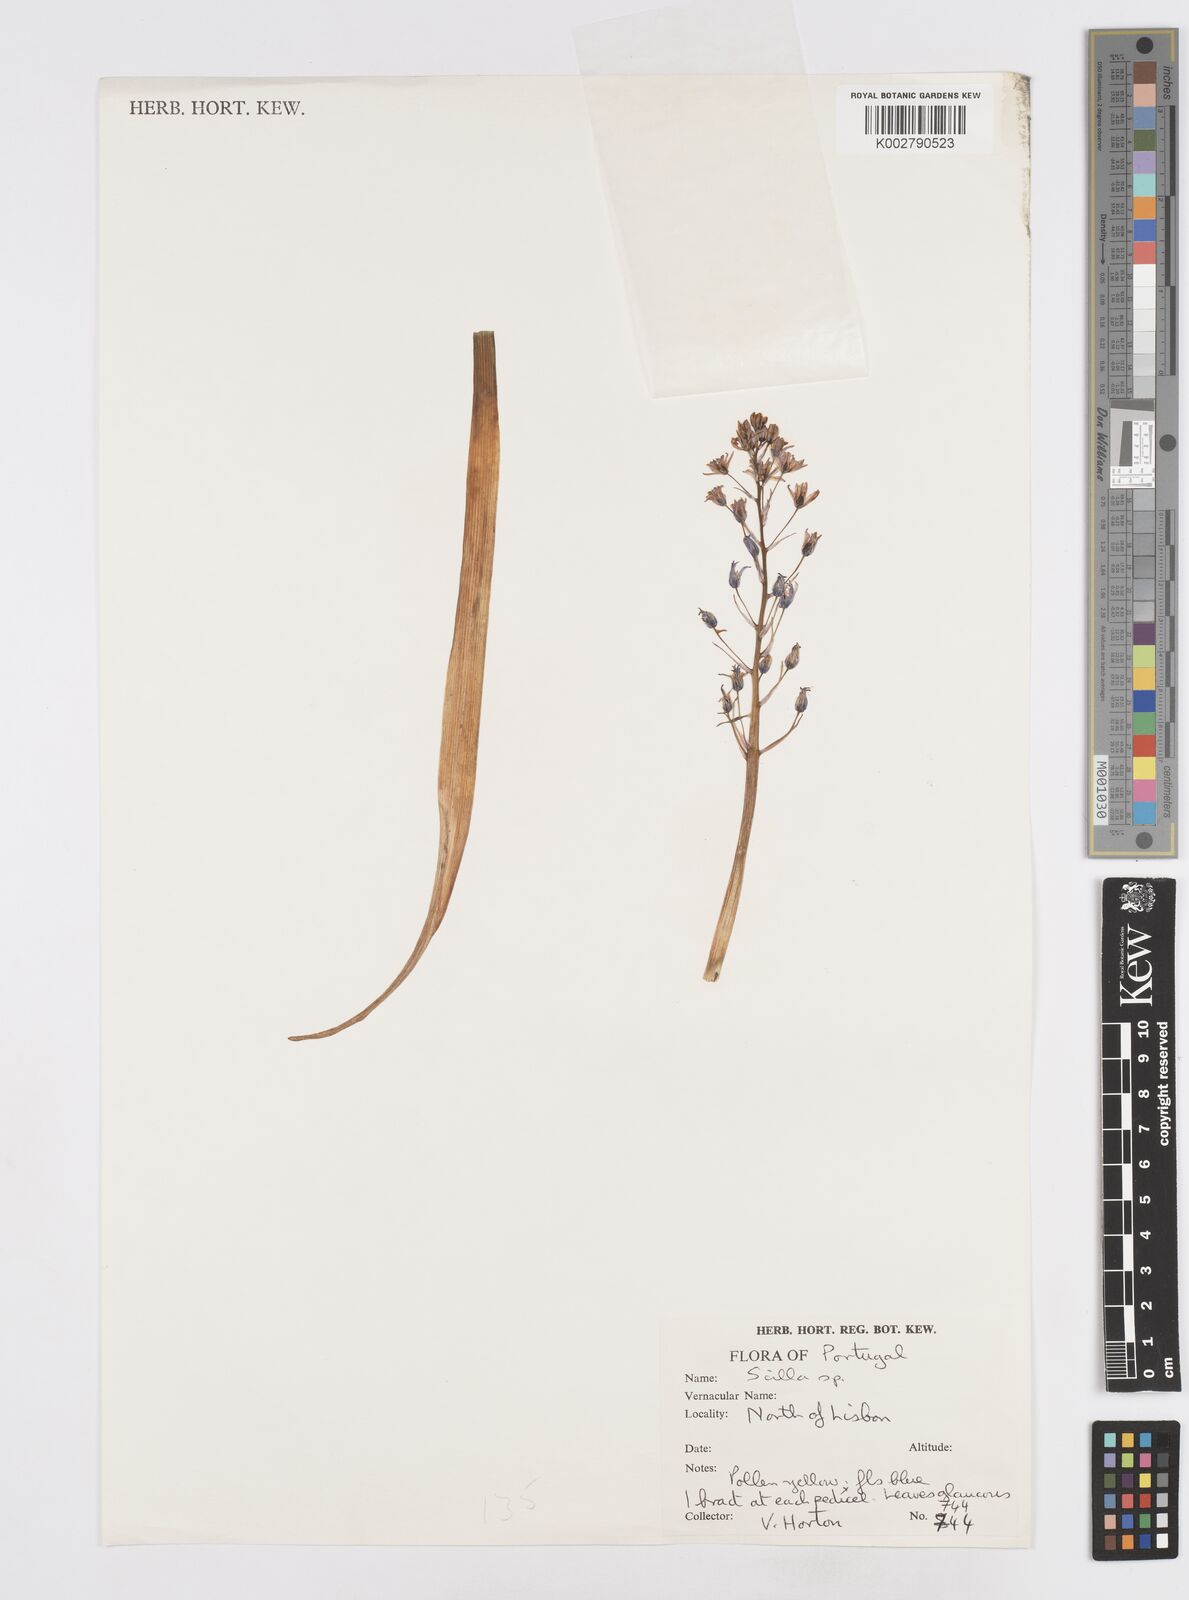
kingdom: Plantae
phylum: Tracheophyta
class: Liliopsida
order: Asparagales
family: Asparagaceae
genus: Scilla
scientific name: Scilla
